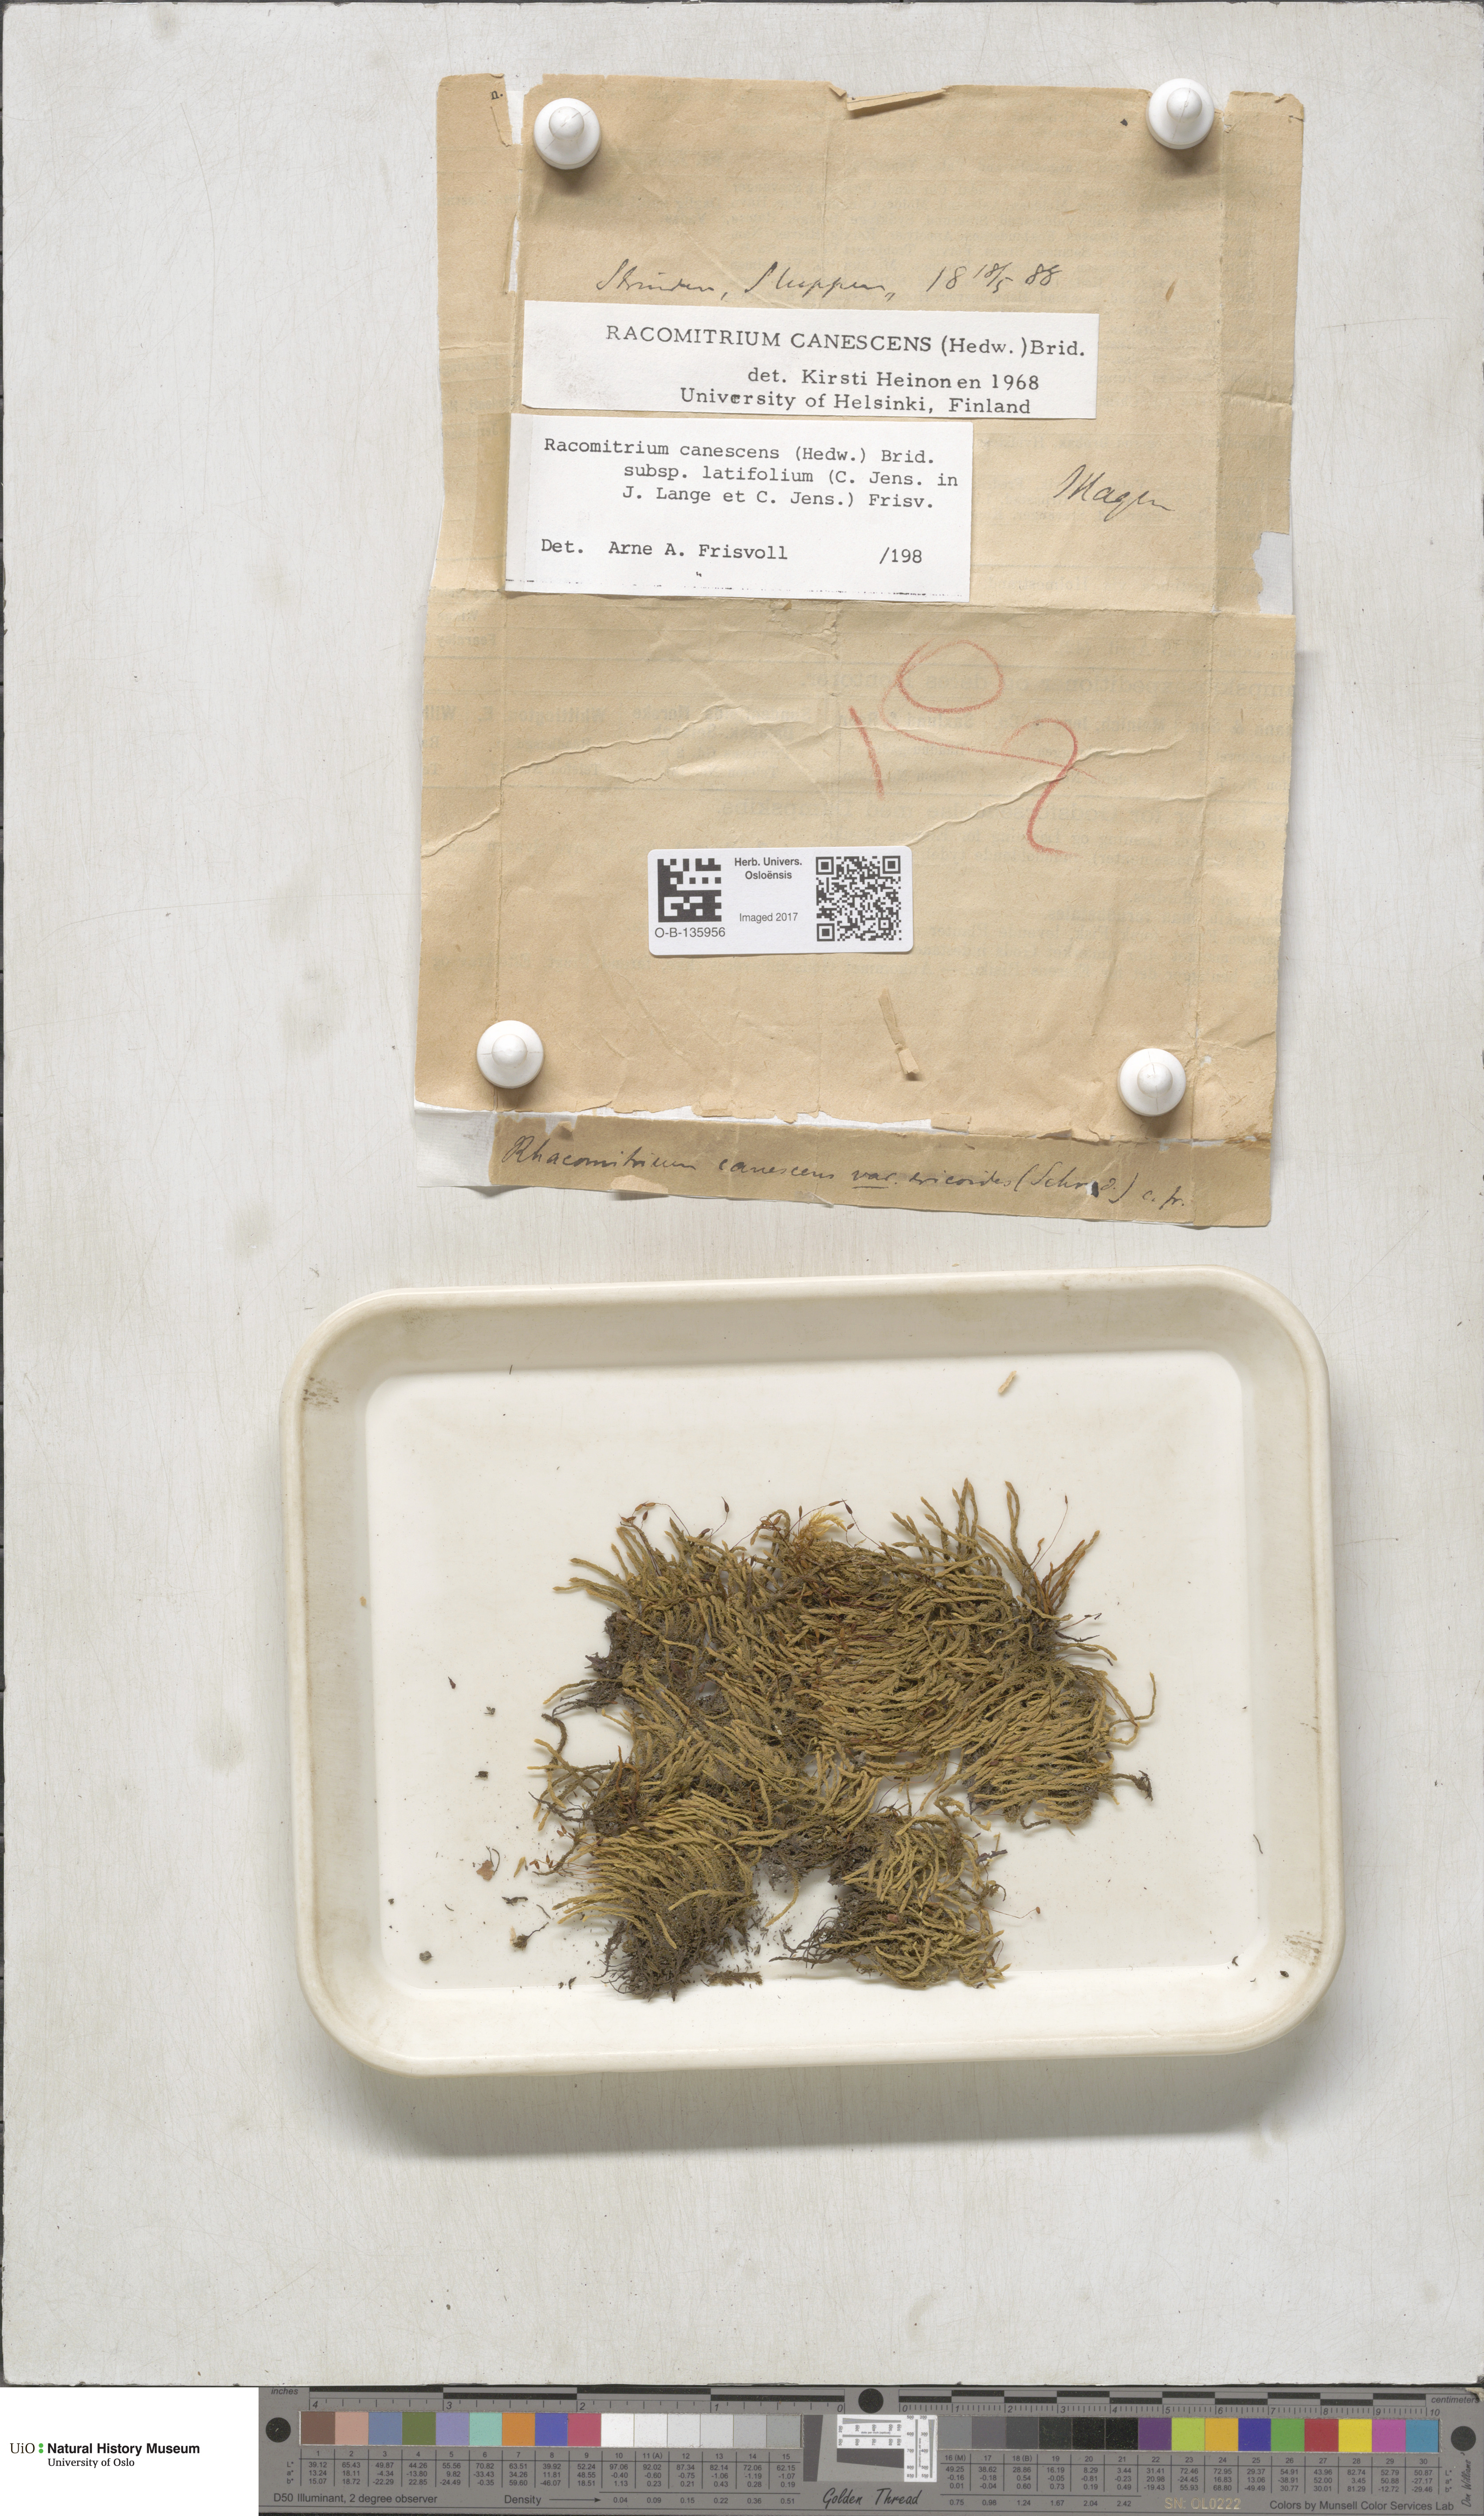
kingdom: Plantae
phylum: Bryophyta
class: Bryopsida
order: Grimmiales
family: Grimmiaceae
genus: Niphotrichum
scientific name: Niphotrichum canescens
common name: Hoary fringe-moss
